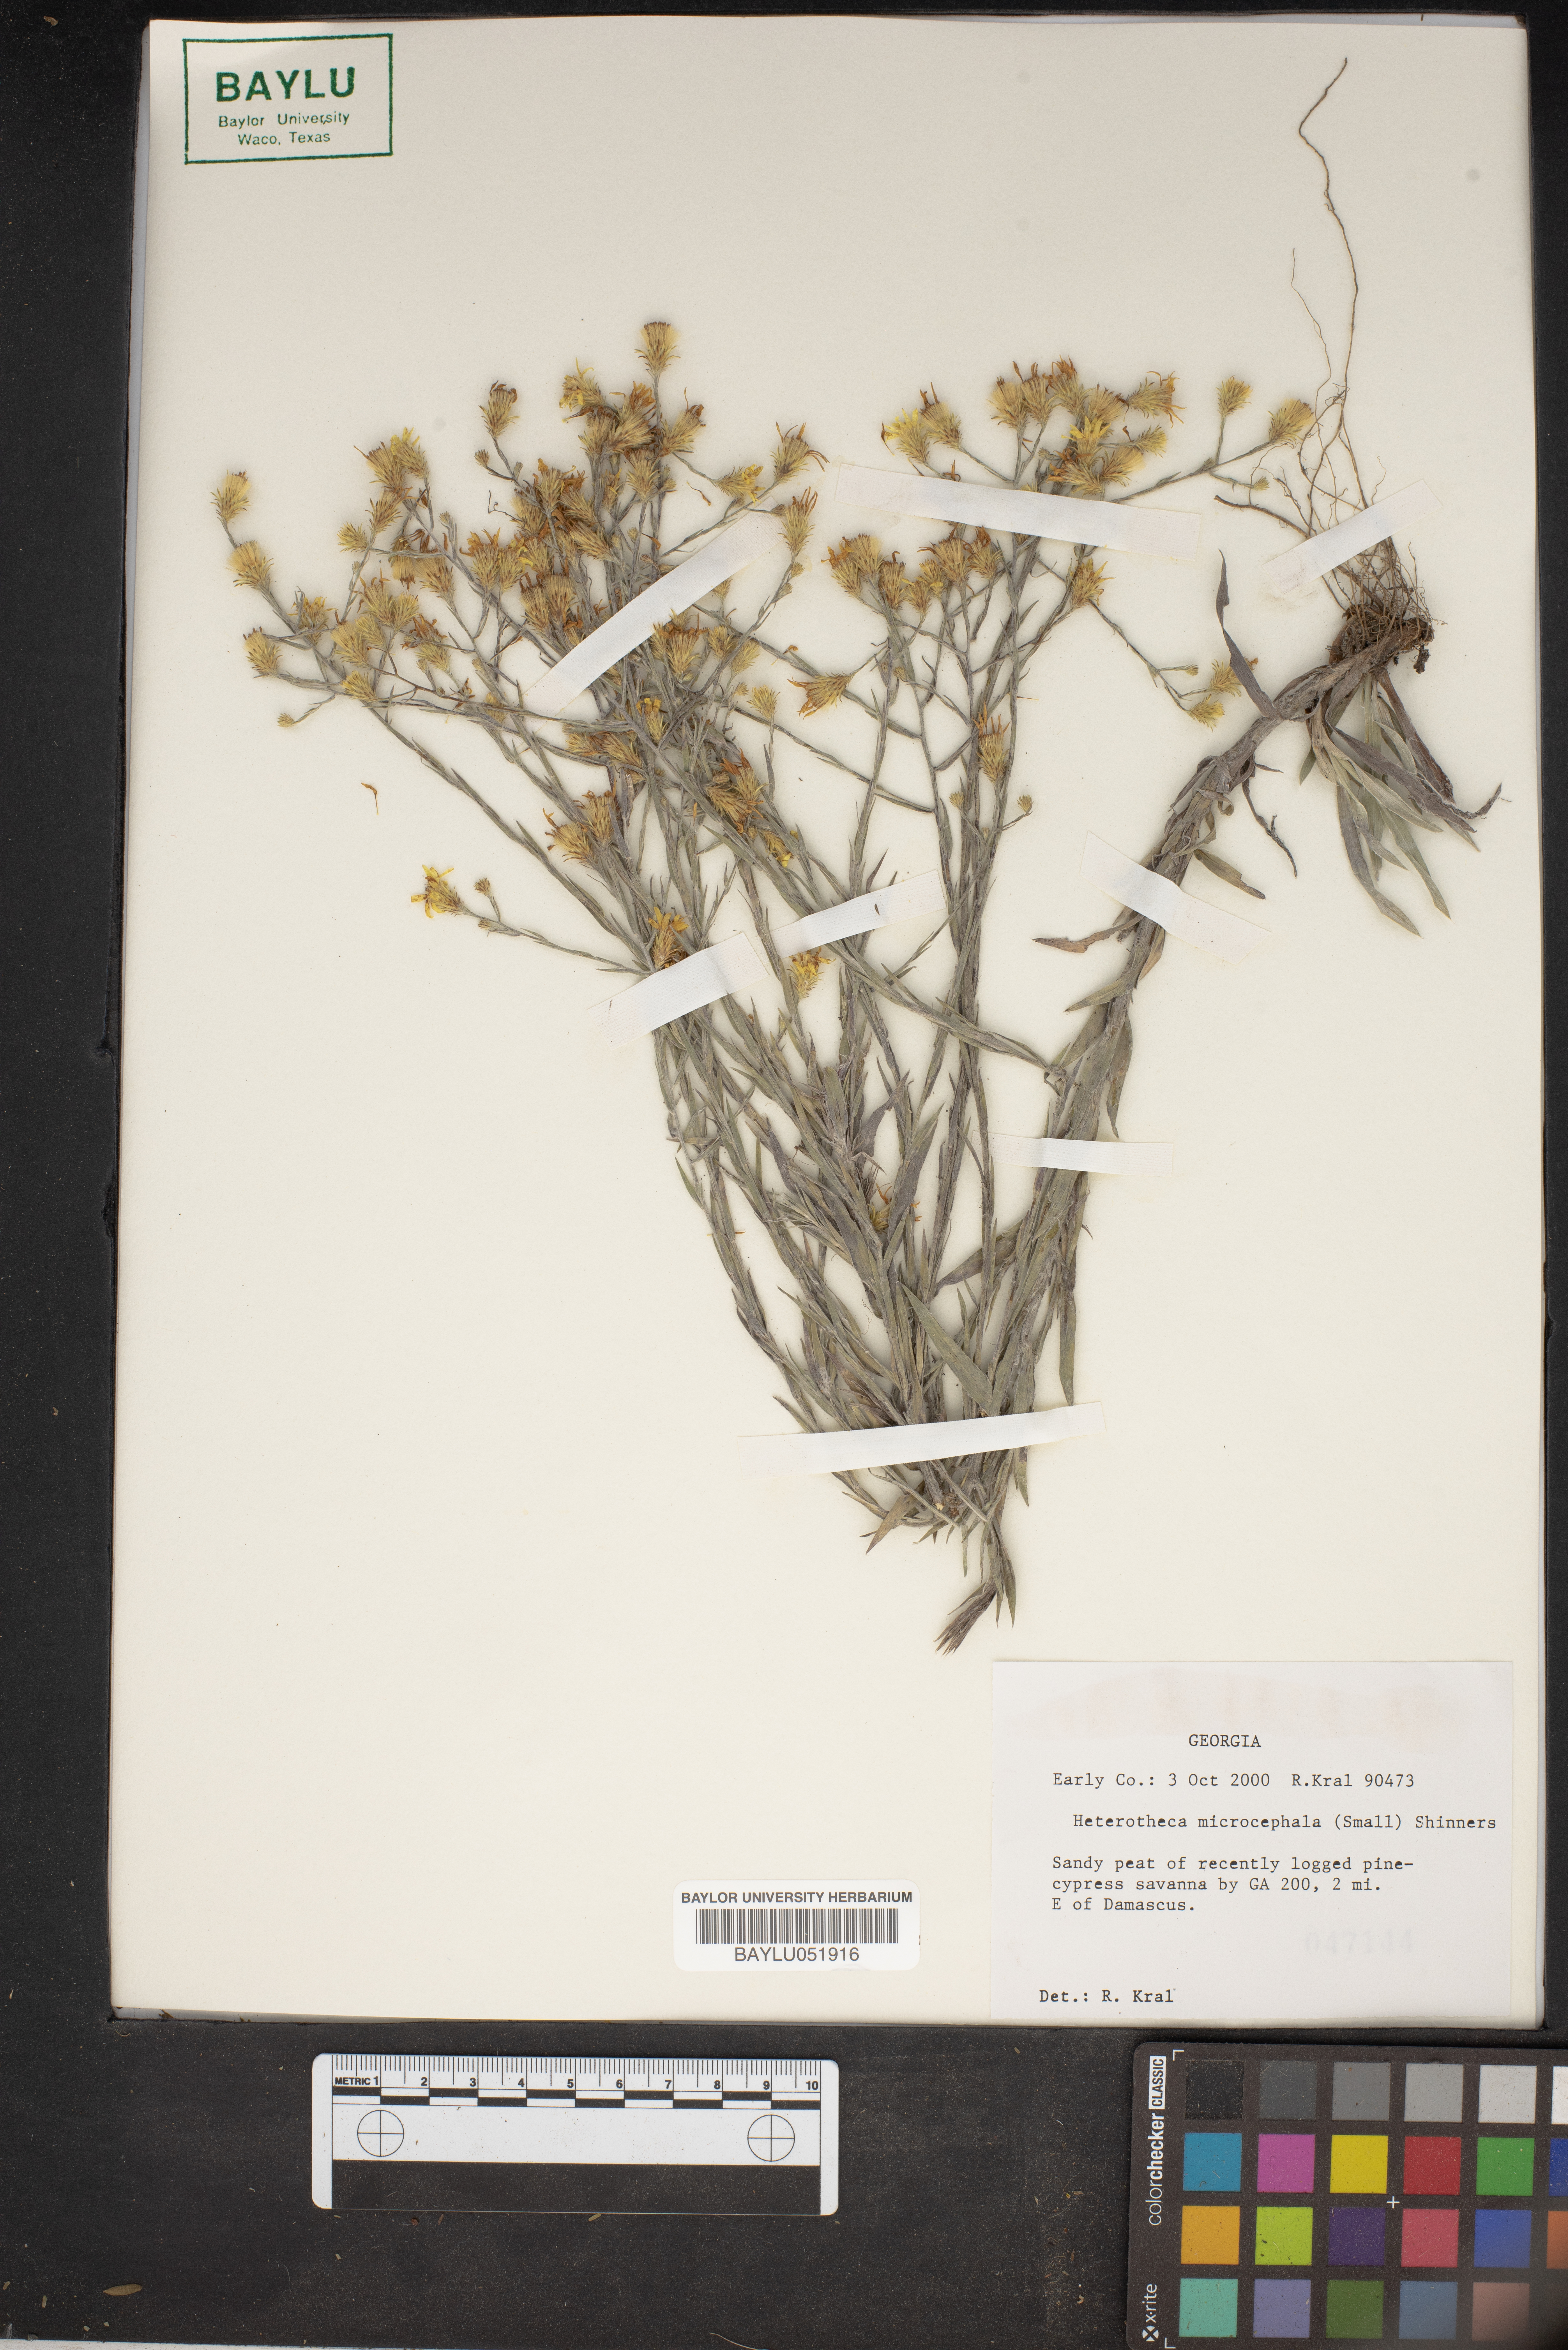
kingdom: Plantae
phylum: Tracheophyta
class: Magnoliopsida
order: Asterales
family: Asteraceae
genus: Pityopsis
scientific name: Pityopsis microcephala
